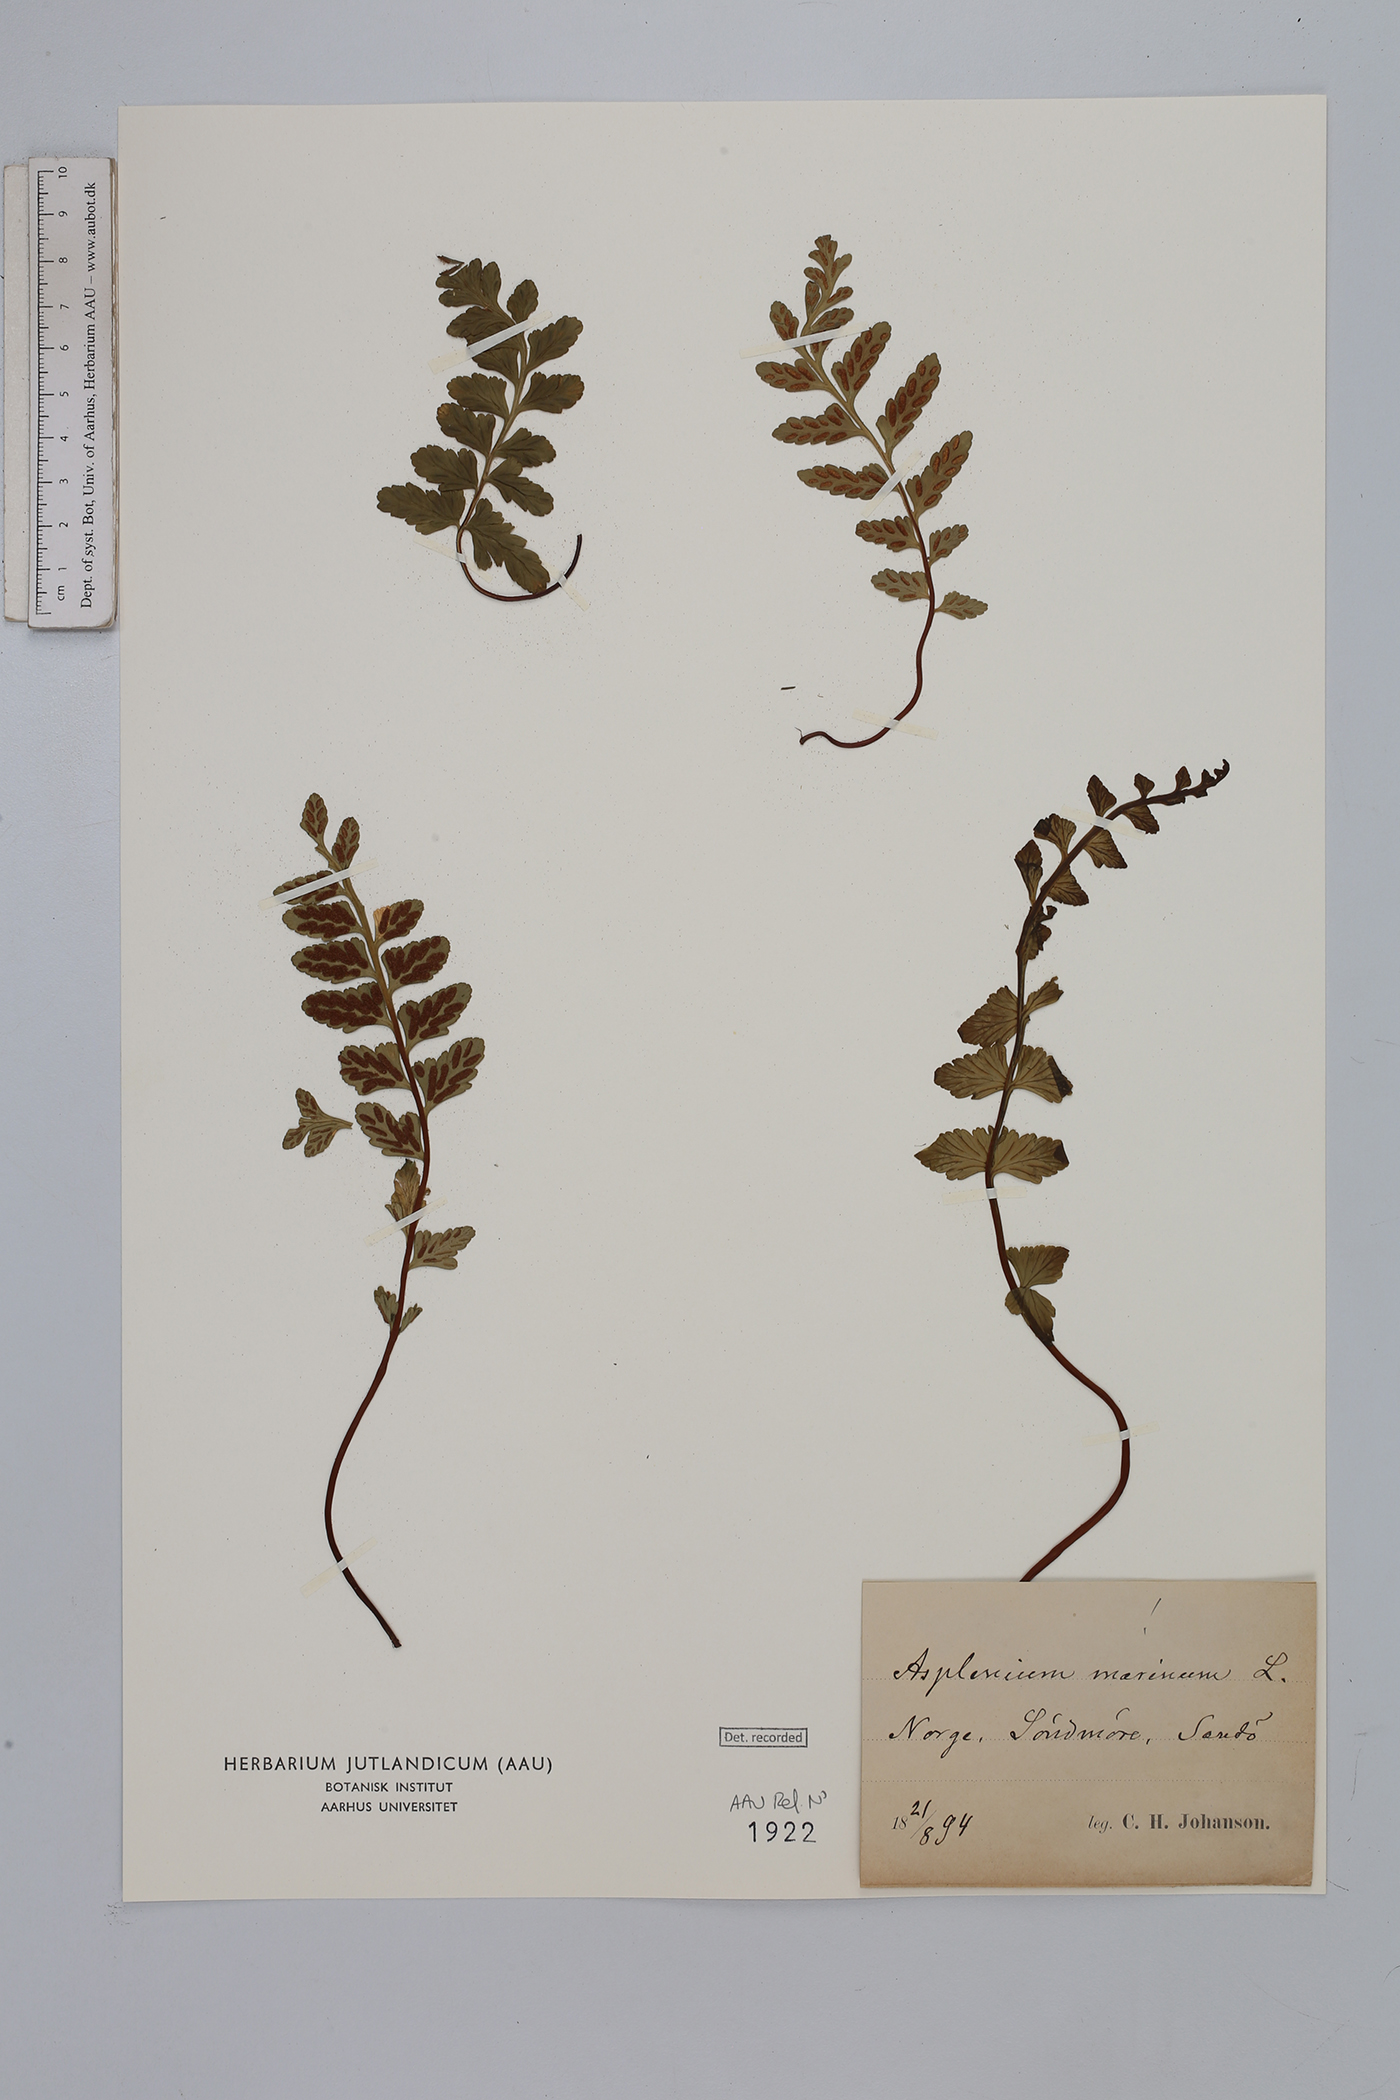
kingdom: Plantae
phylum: Tracheophyta
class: Polypodiopsida
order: Polypodiales
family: Aspleniaceae
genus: Asplenium
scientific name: Asplenium marinum
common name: Sea spleenwort
